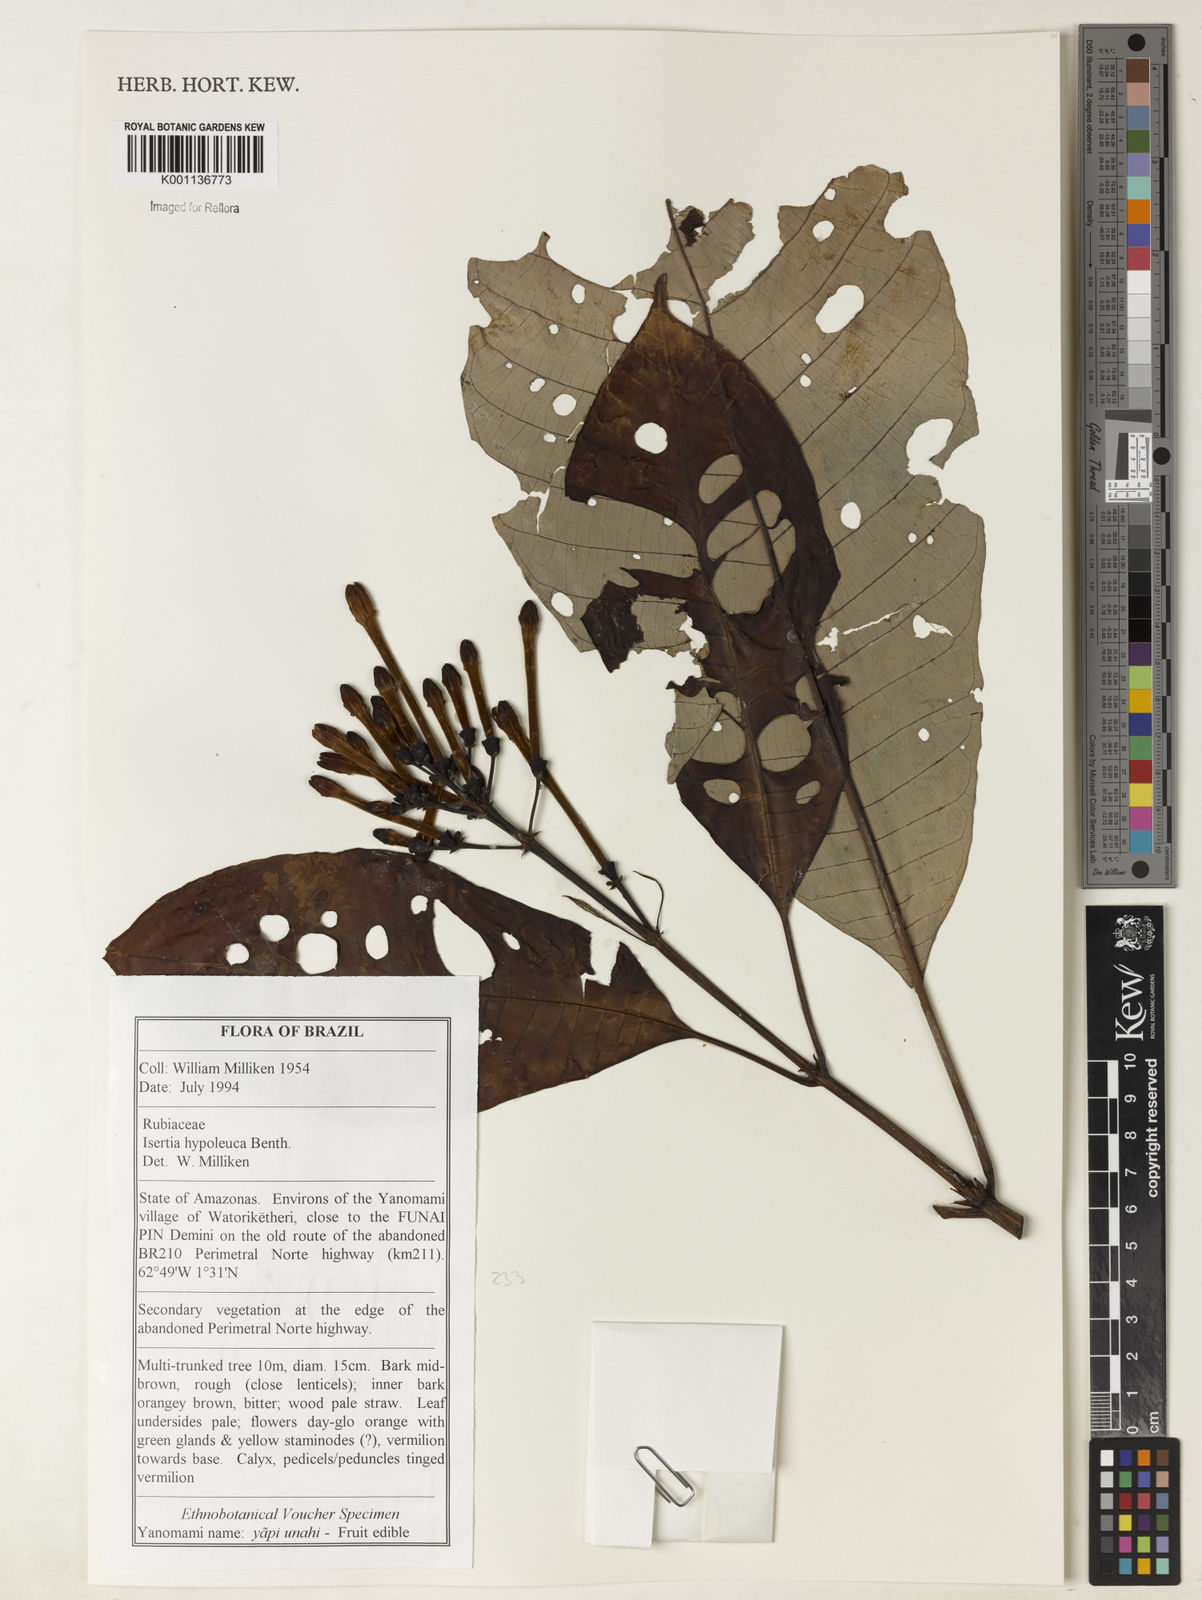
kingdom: Plantae
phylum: Tracheophyta
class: Magnoliopsida
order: Gentianales
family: Rubiaceae
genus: Isertia
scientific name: Isertia hypoleuca
